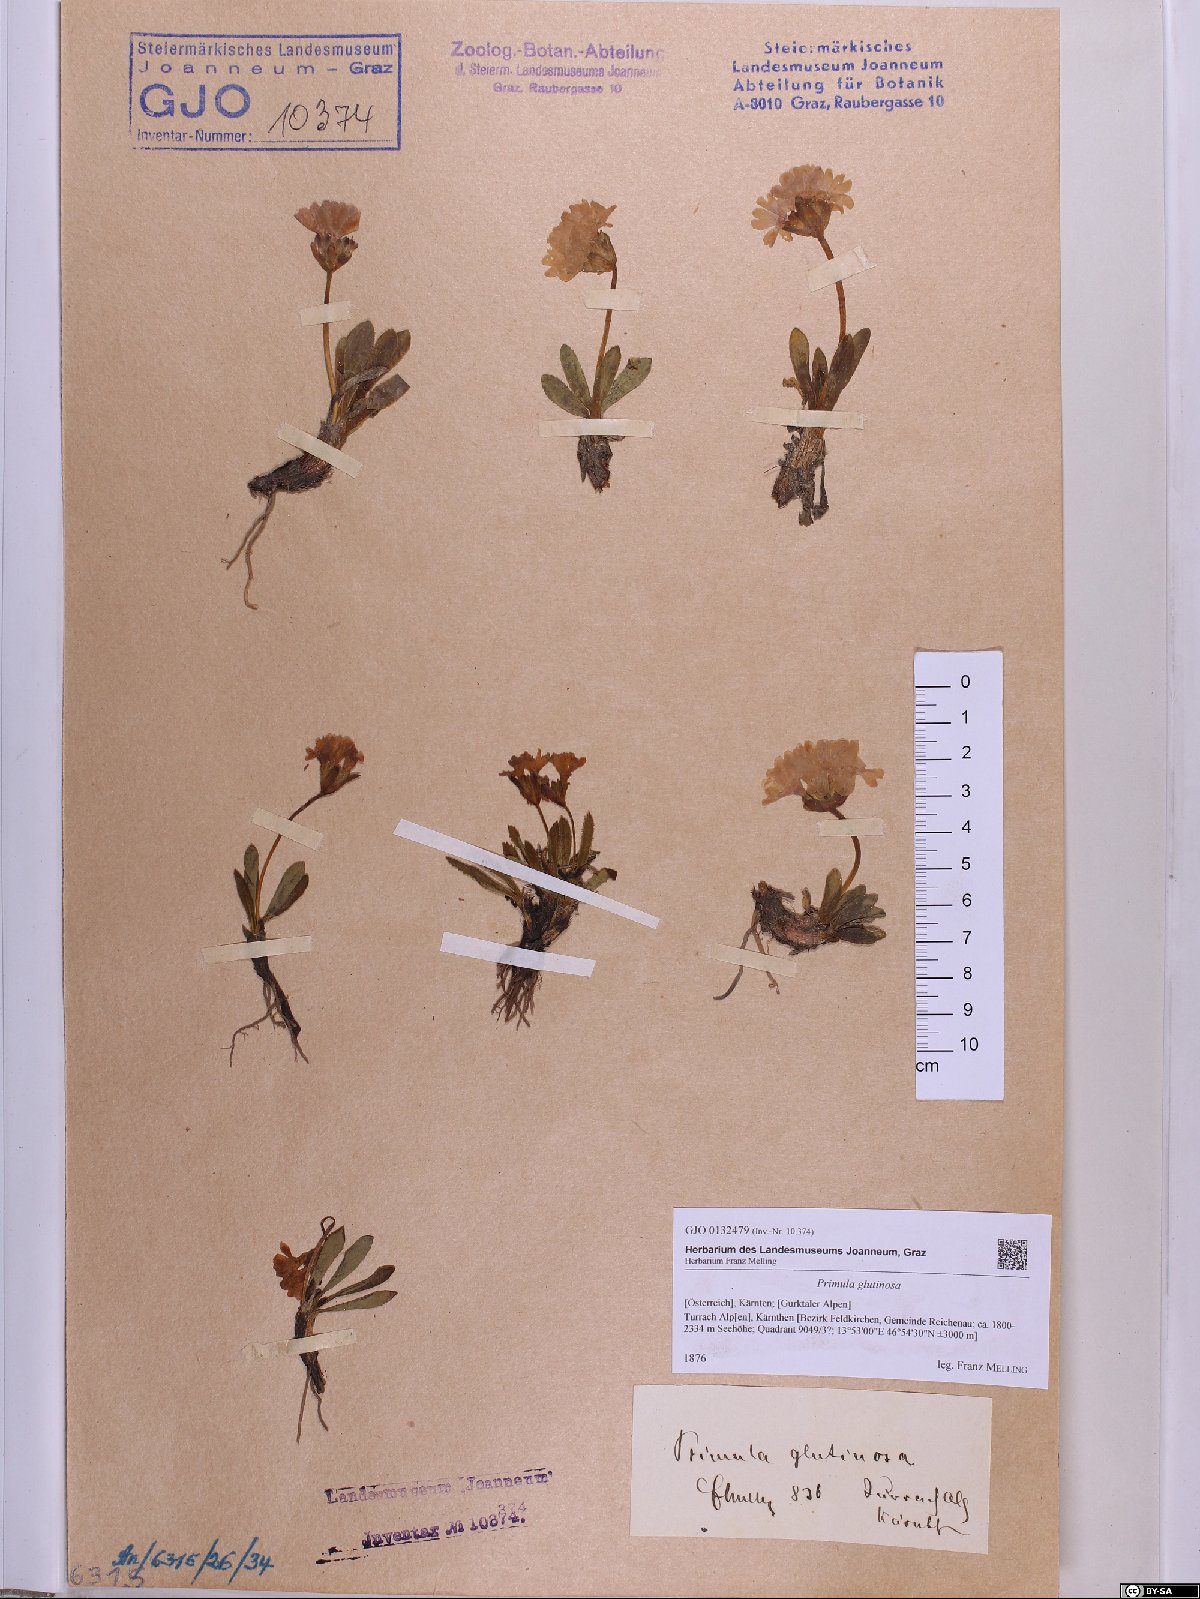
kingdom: Plantae
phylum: Tracheophyta
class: Magnoliopsida
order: Ericales
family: Primulaceae
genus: Primula
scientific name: Primula glutinosa
